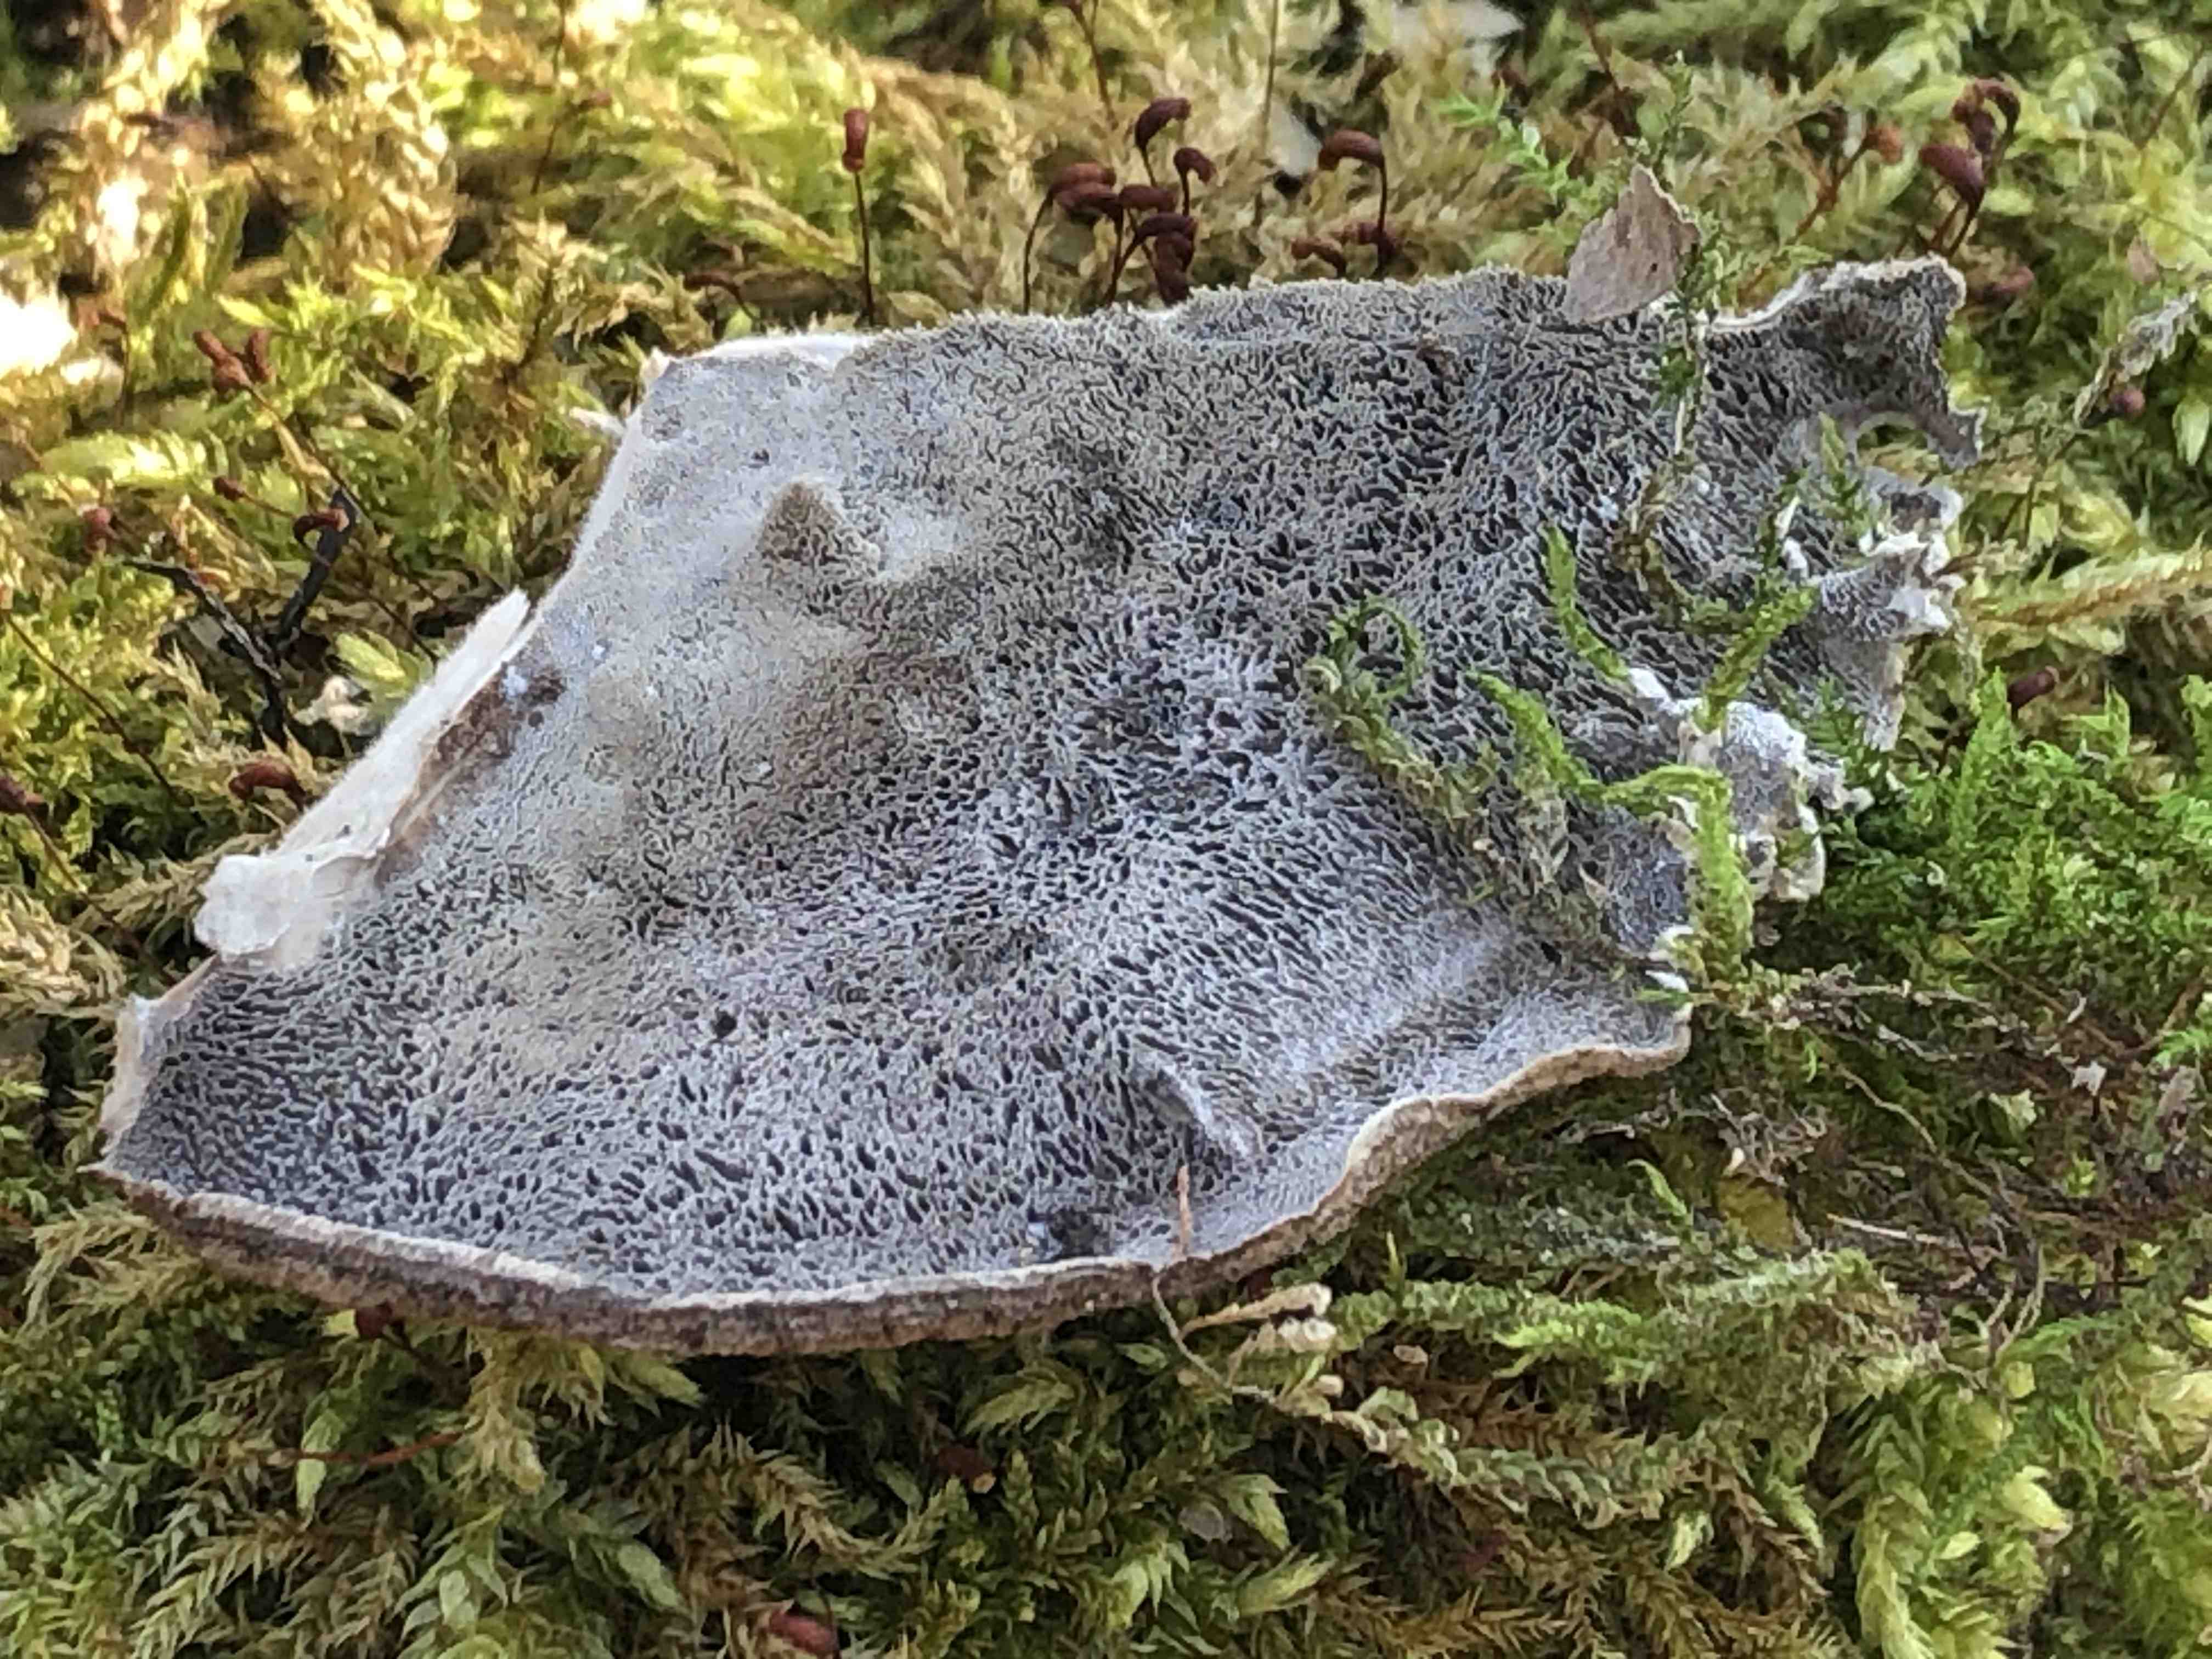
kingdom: Fungi
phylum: Basidiomycota
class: Agaricomycetes
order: Polyporales
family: Phanerochaetaceae
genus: Bjerkandera
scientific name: Bjerkandera adusta
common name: sveden sodporesvamp
